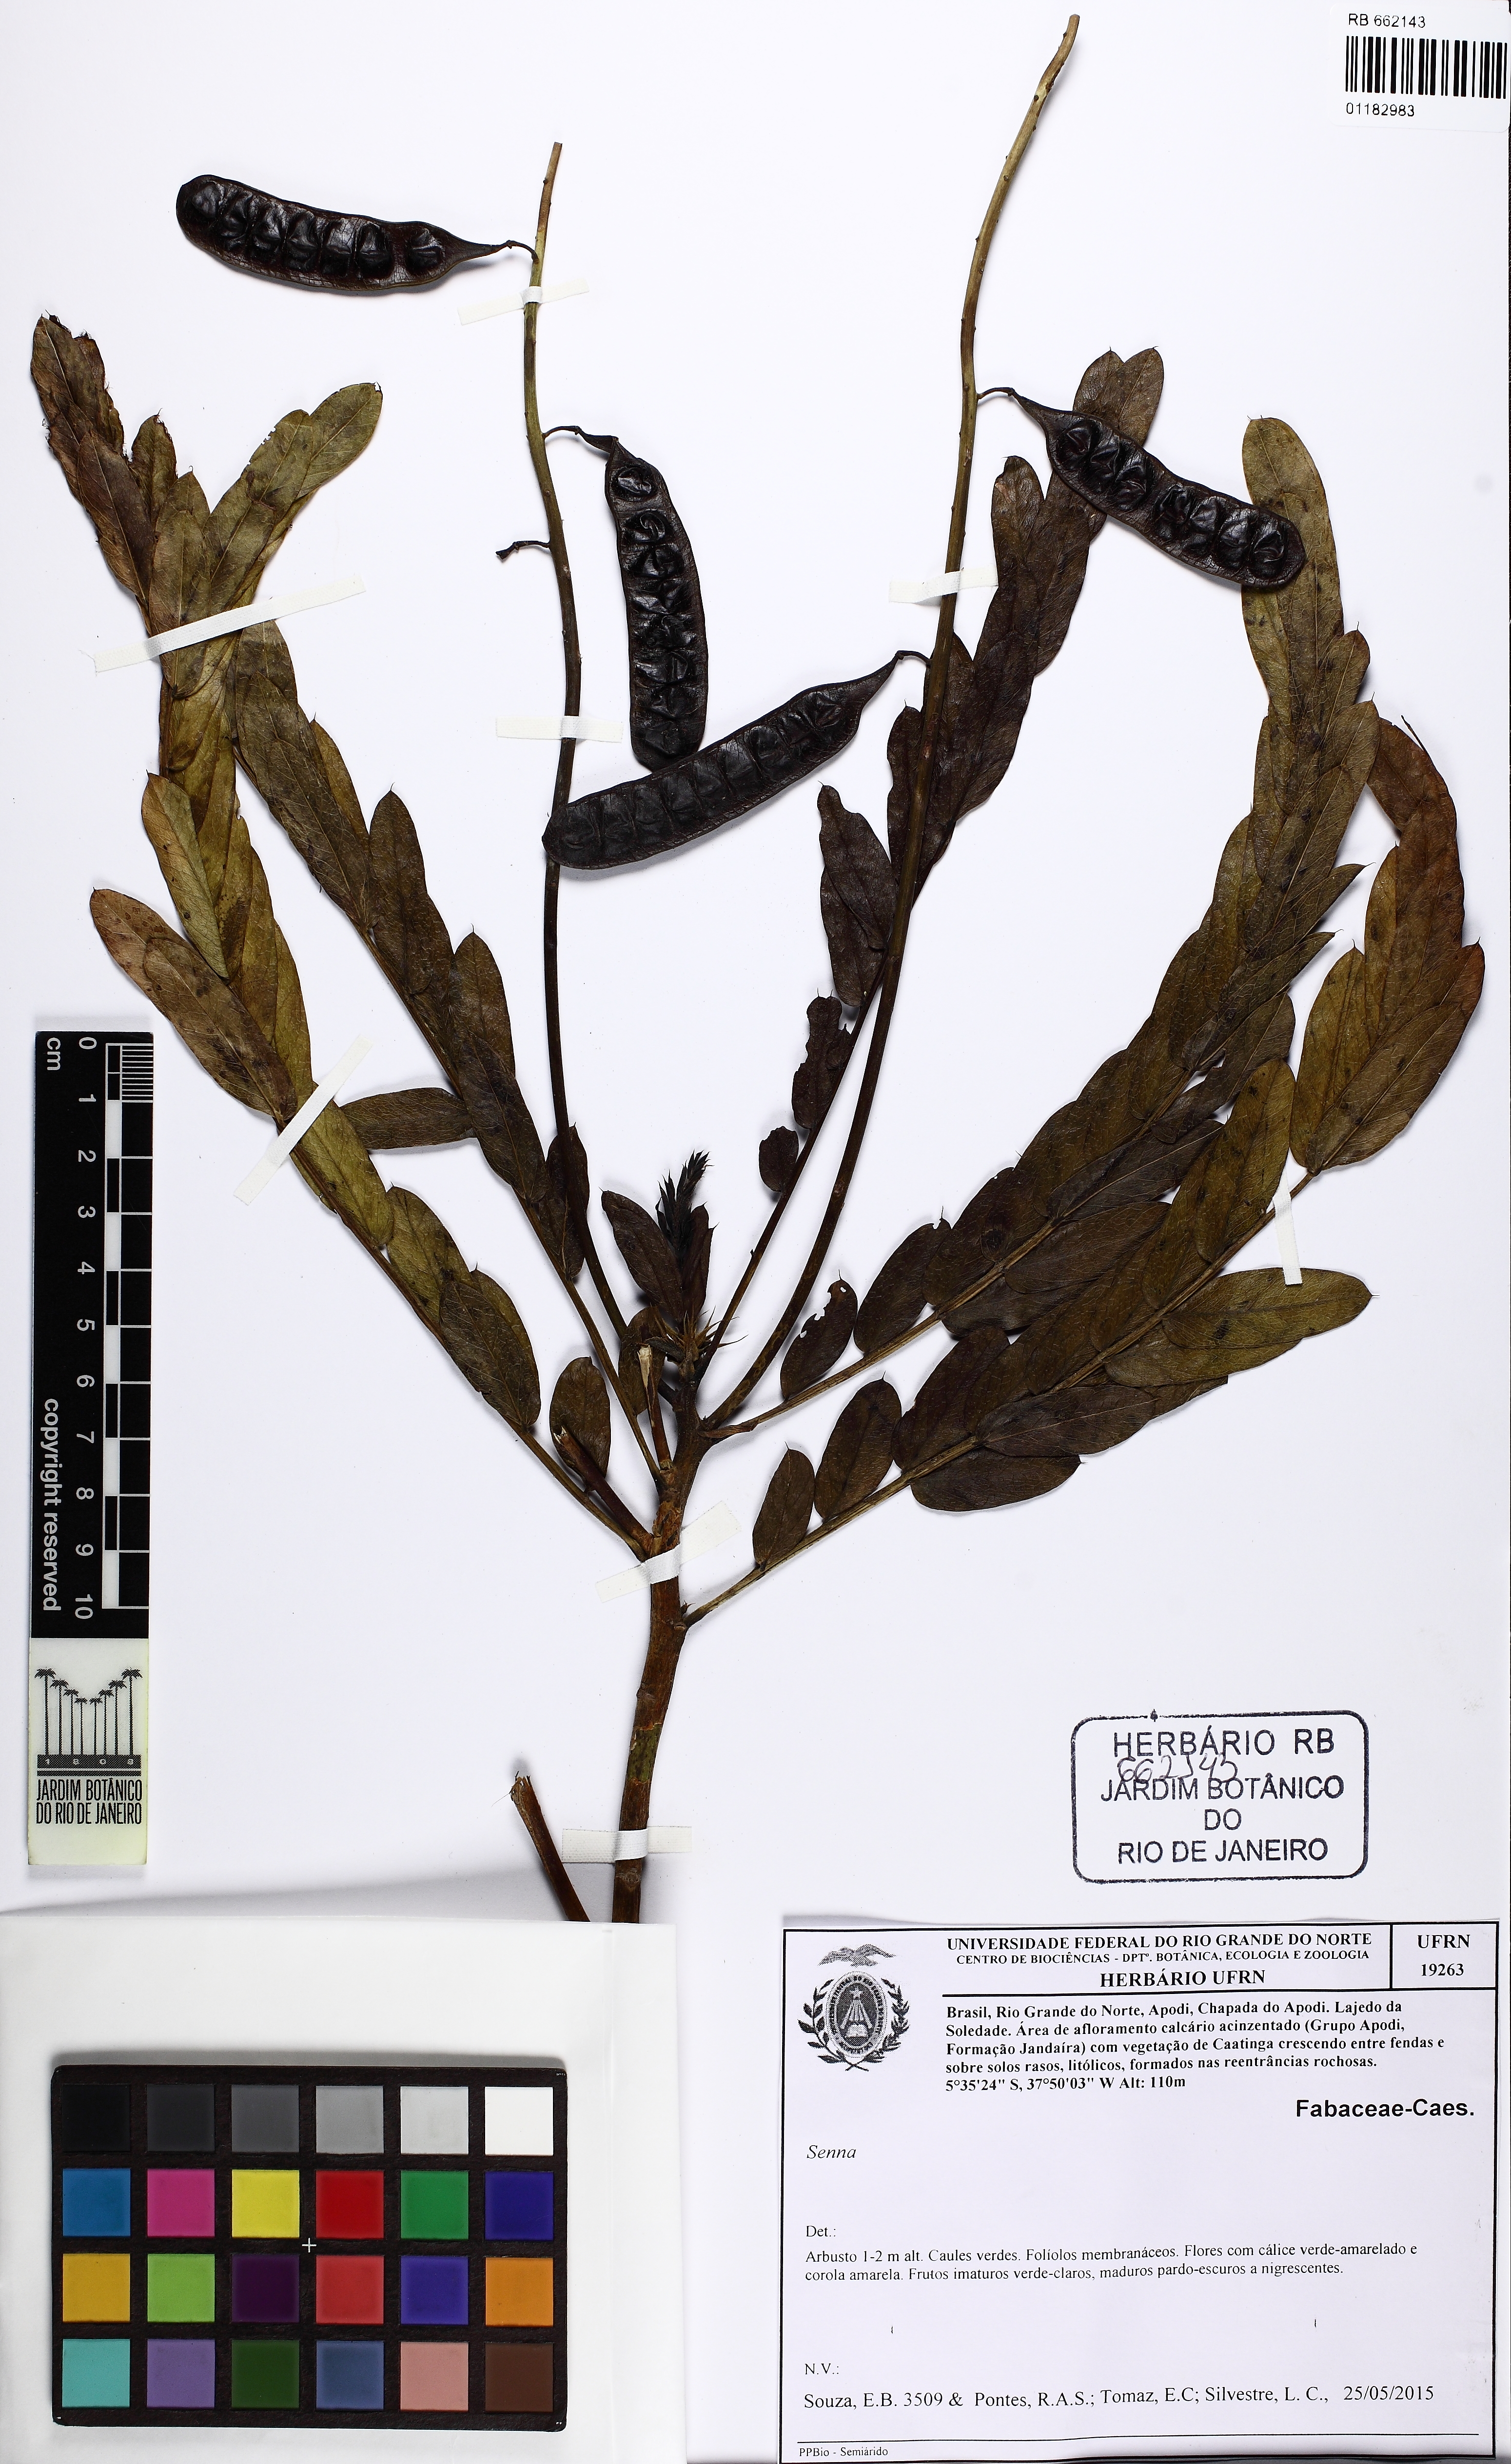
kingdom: Plantae
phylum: Tracheophyta
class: Magnoliopsida
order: Fabales
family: Fabaceae
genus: Senna
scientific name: Senna martiana
